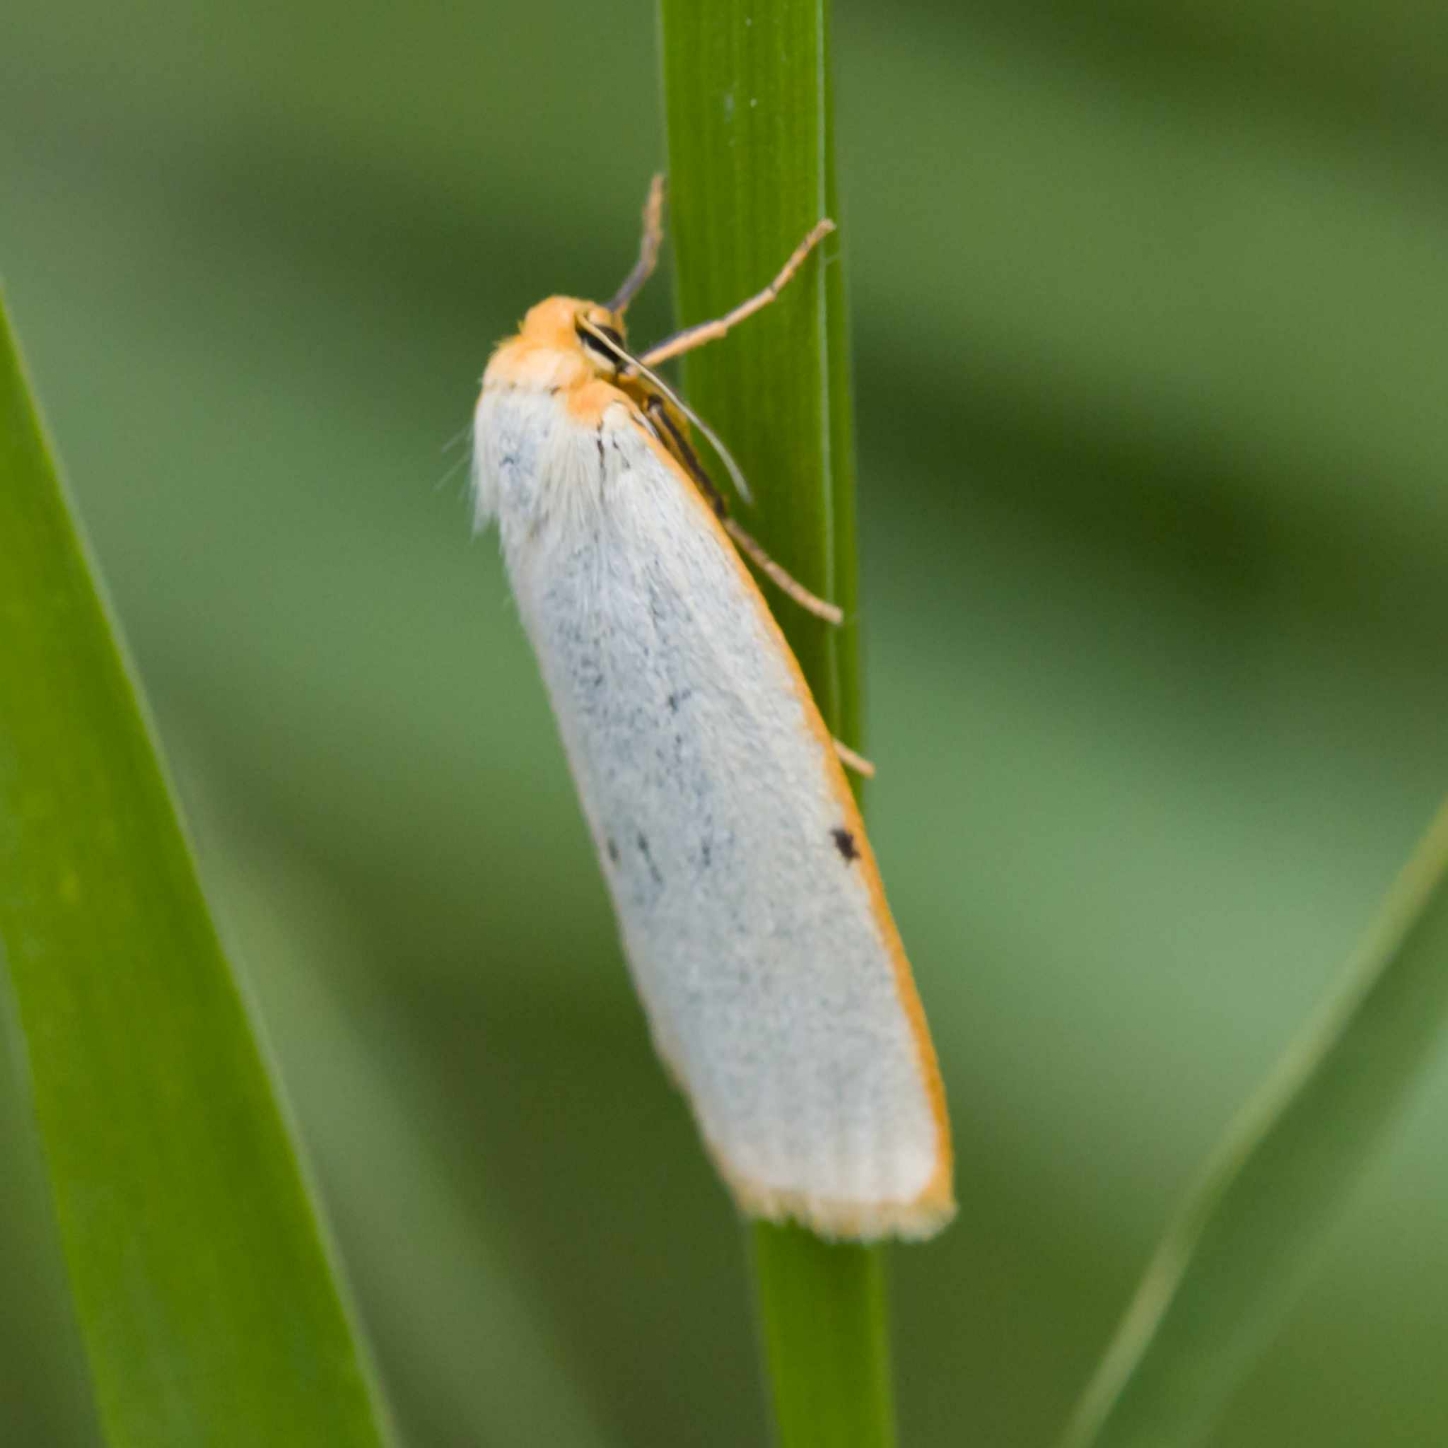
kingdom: Animalia
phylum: Arthropoda
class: Insecta
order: Lepidoptera
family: Erebidae
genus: Cybosia
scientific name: Cybosia mesomella
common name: Dag-lavspinder
